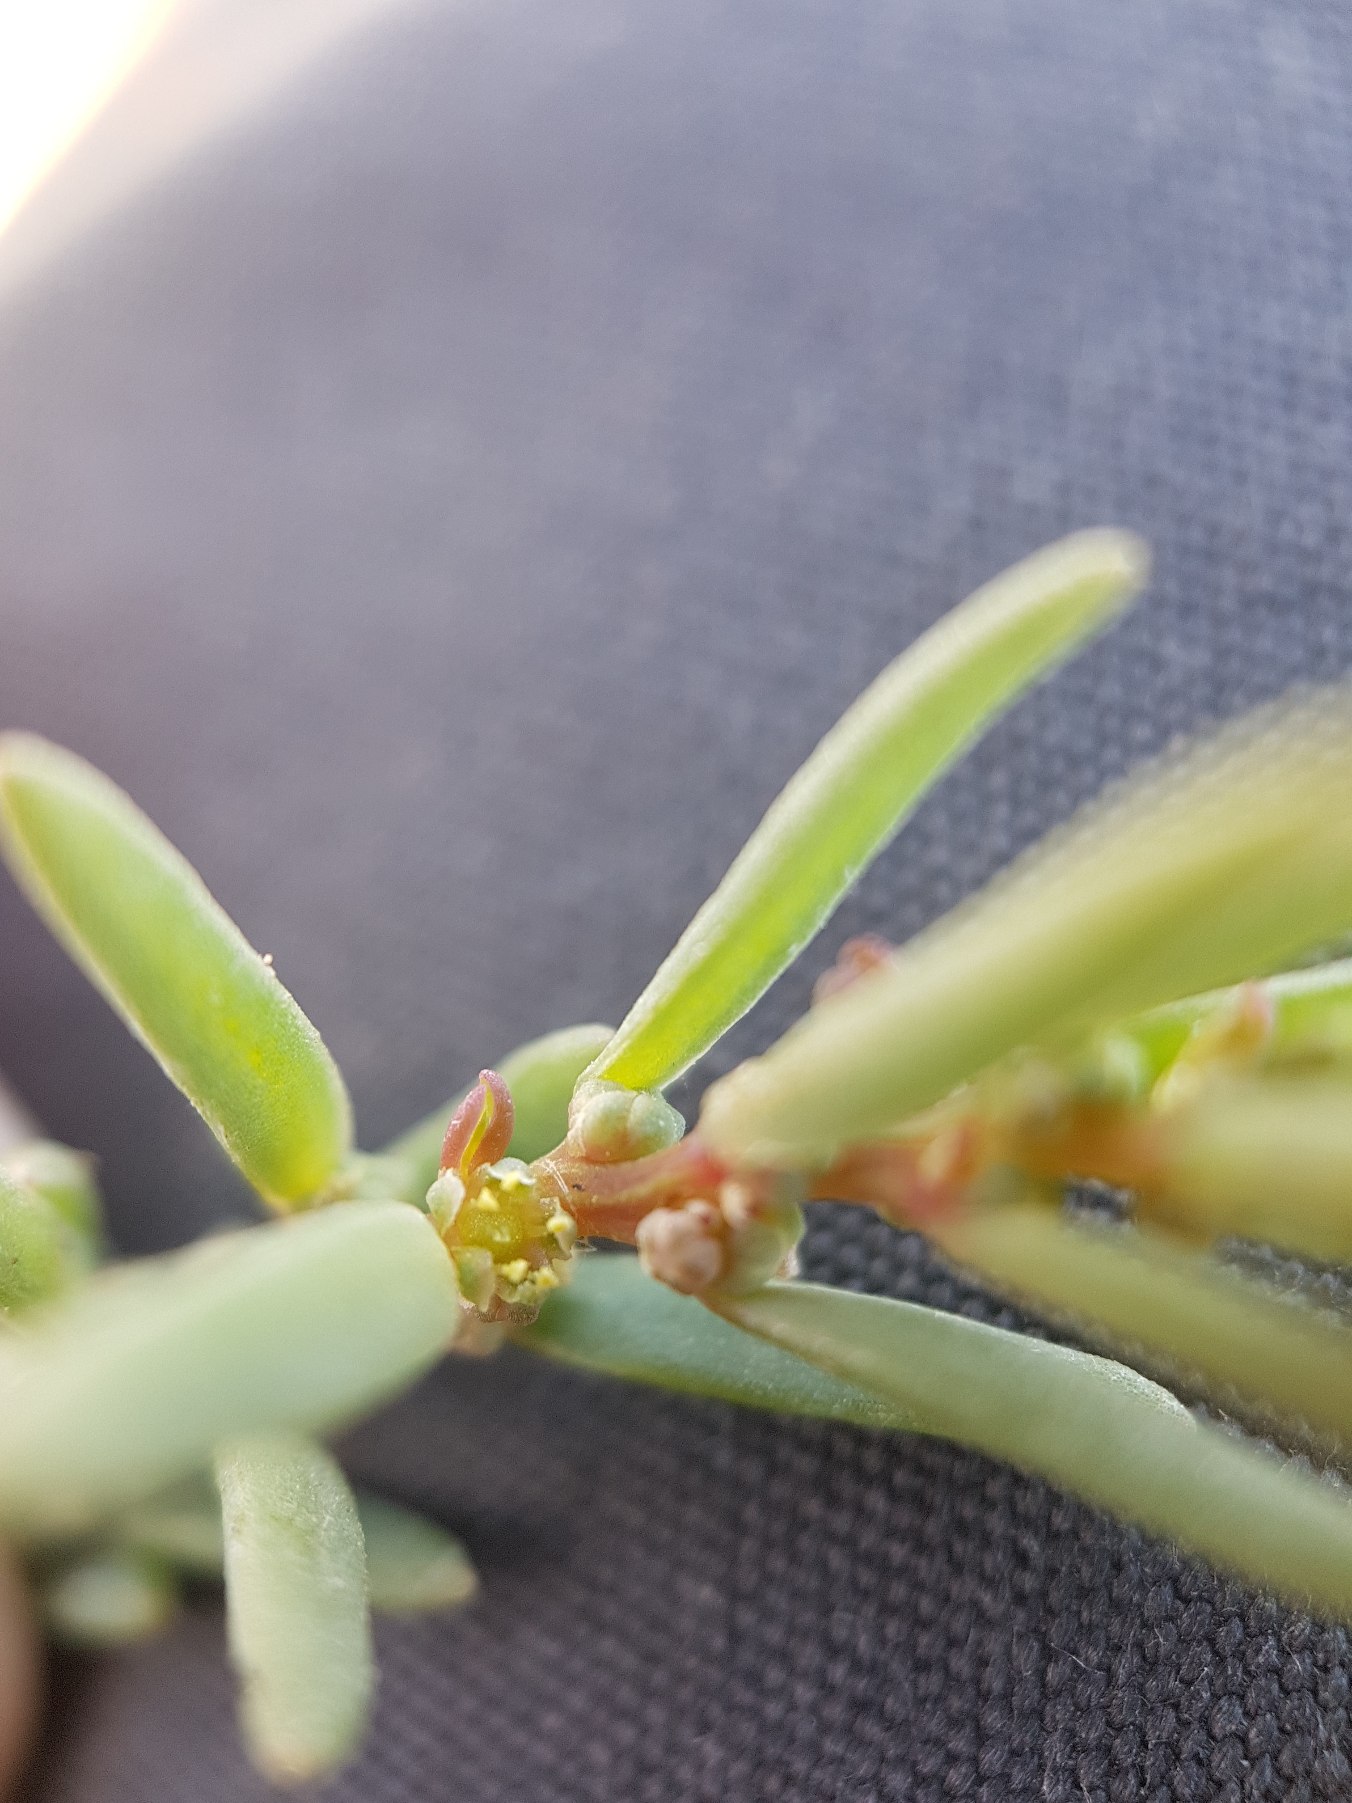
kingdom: Plantae
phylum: Tracheophyta
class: Magnoliopsida
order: Caryophyllales
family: Amaranthaceae
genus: Suaeda
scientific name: Suaeda maritima
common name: Strandgåsefod
